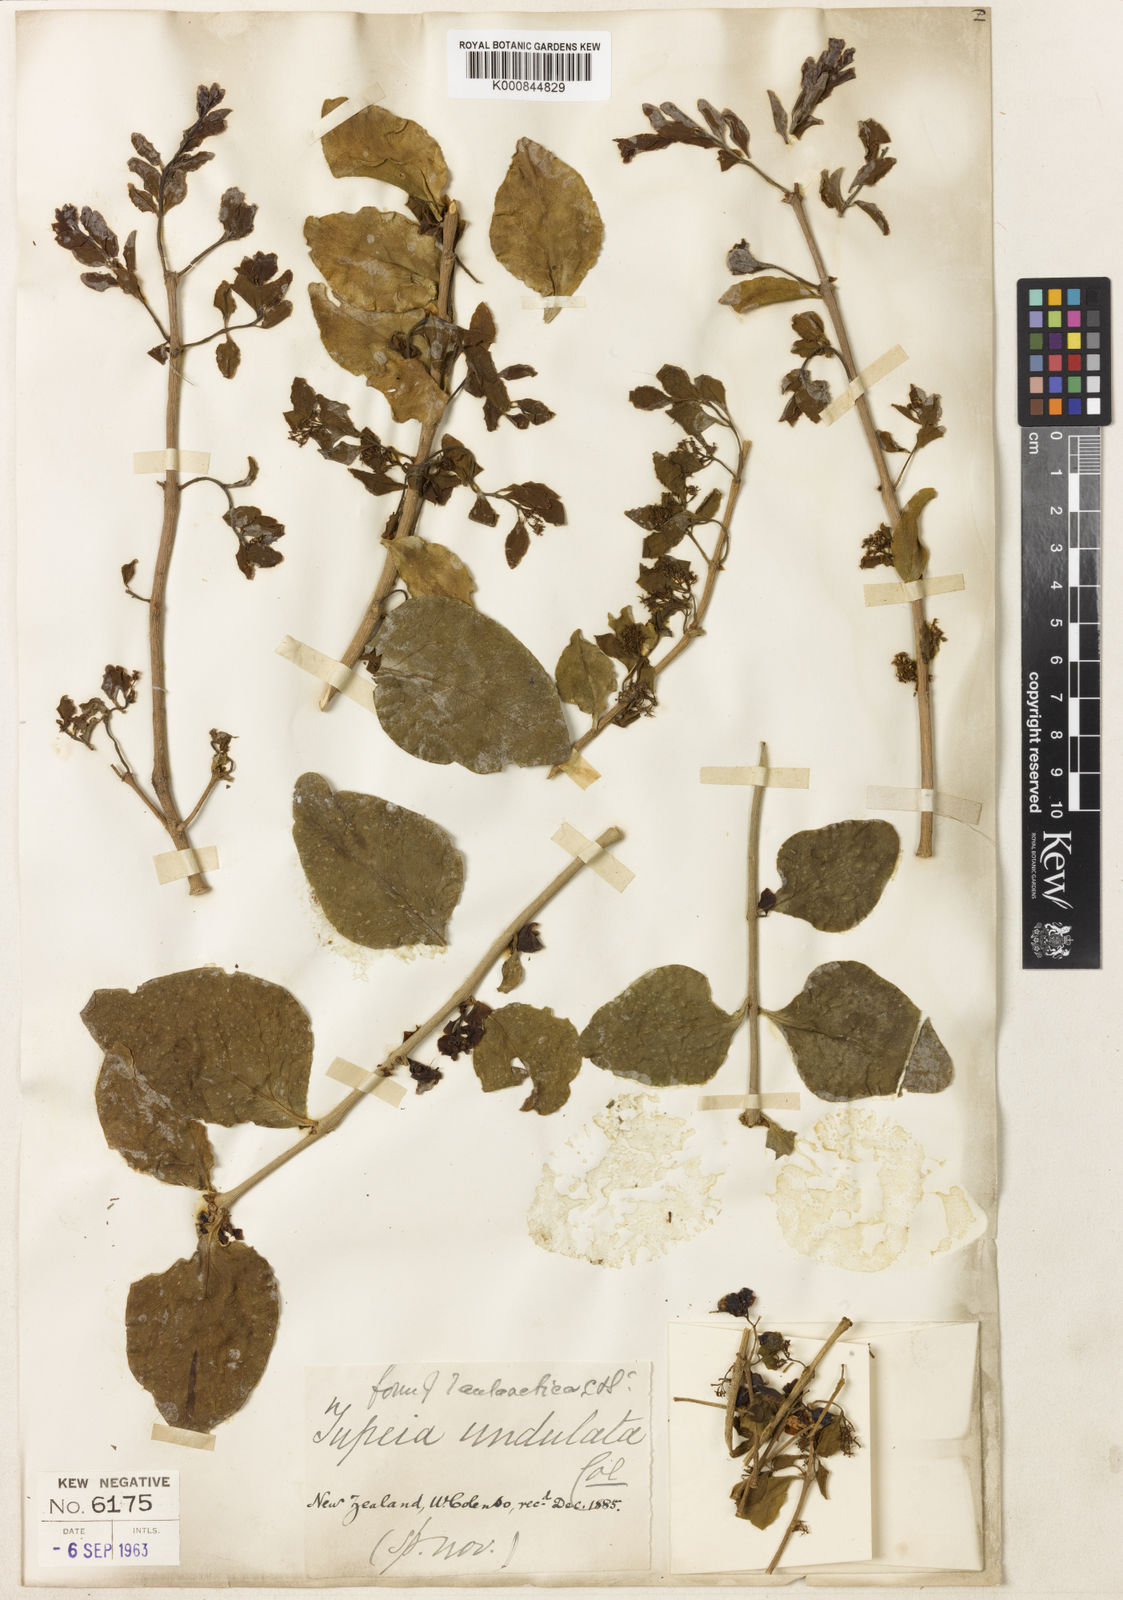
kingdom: Plantae
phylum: Tracheophyta
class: Magnoliopsida
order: Santalales
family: Loranthaceae
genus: Tupeia
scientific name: Tupeia antarctica
